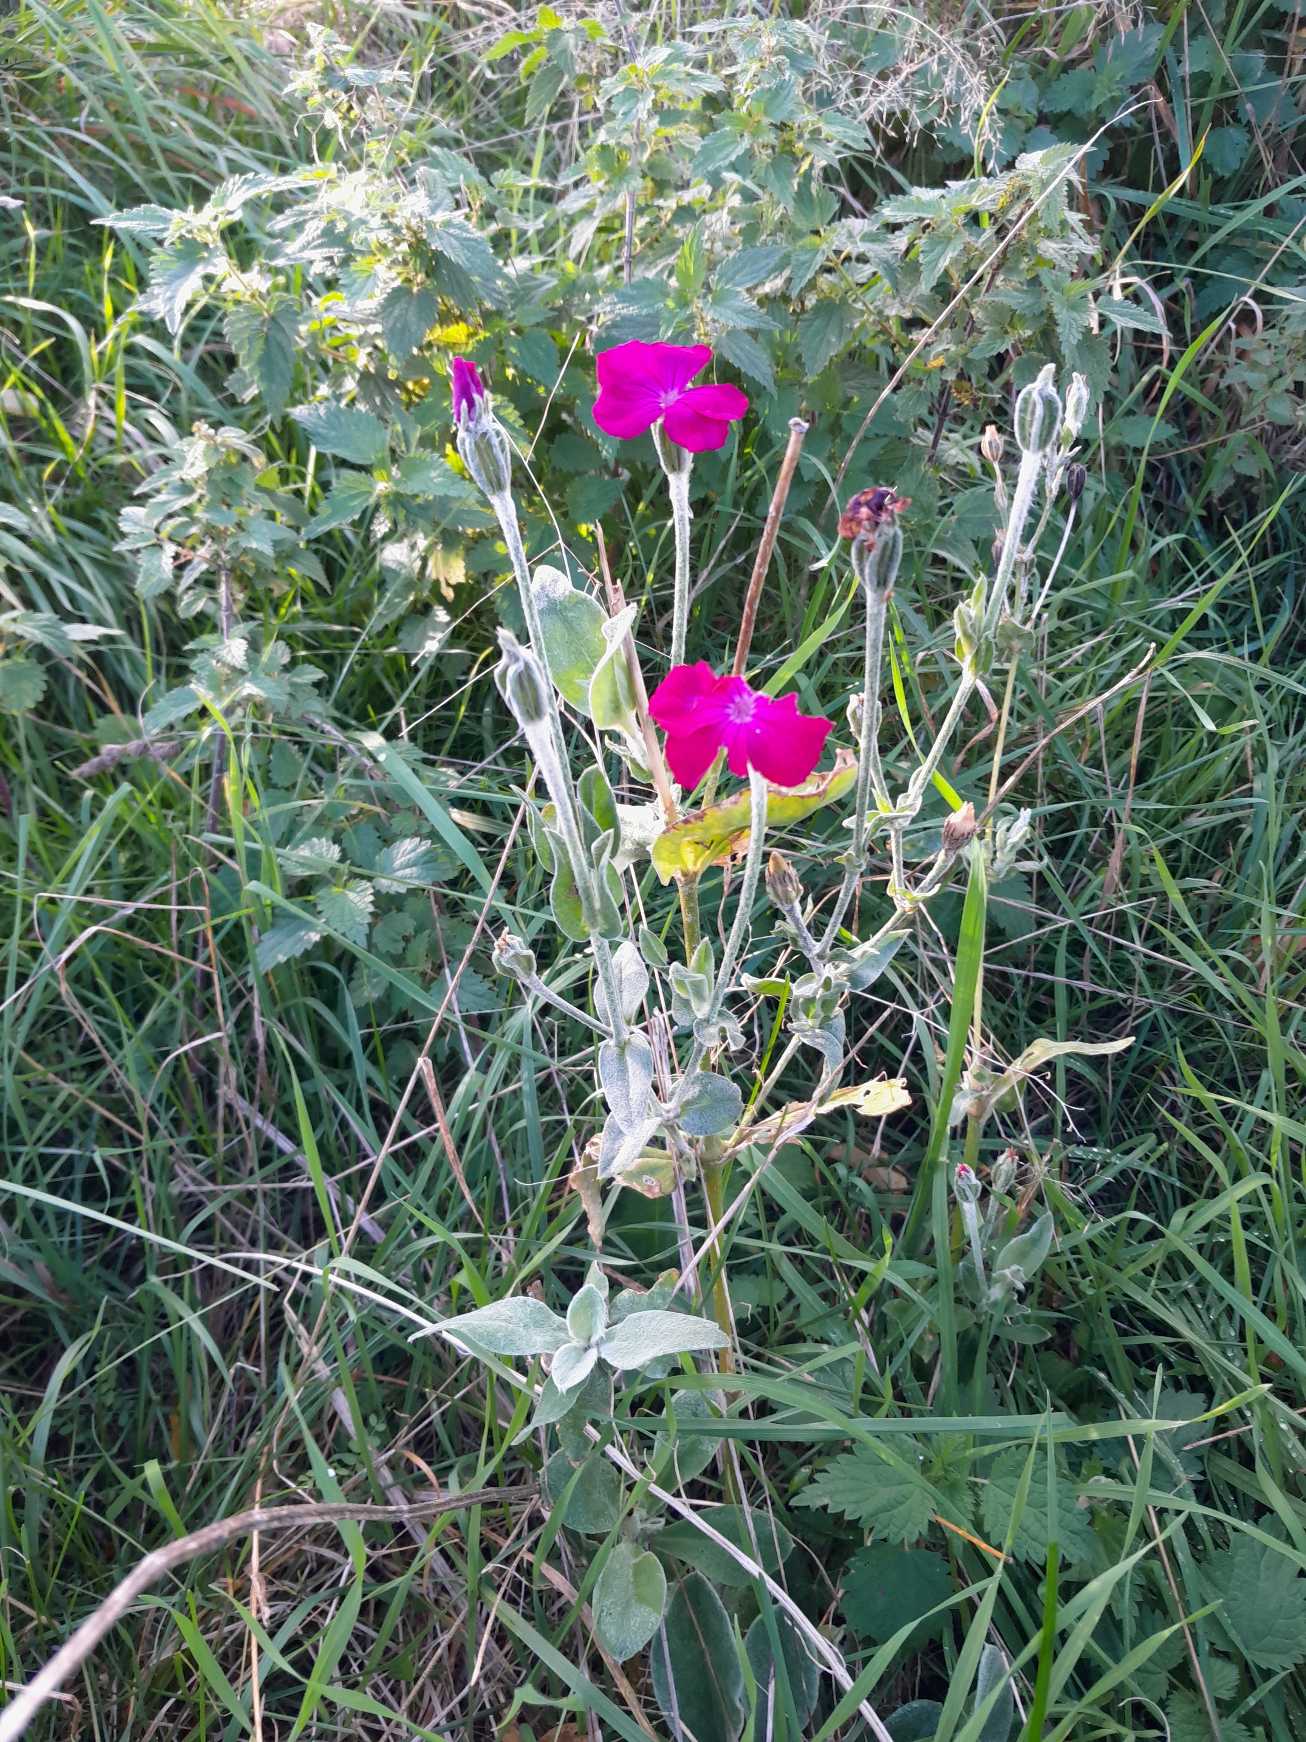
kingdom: Plantae
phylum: Tracheophyta
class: Magnoliopsida
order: Caryophyllales
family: Caryophyllaceae
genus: Silene
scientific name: Silene coronaria
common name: Fiksernellike
